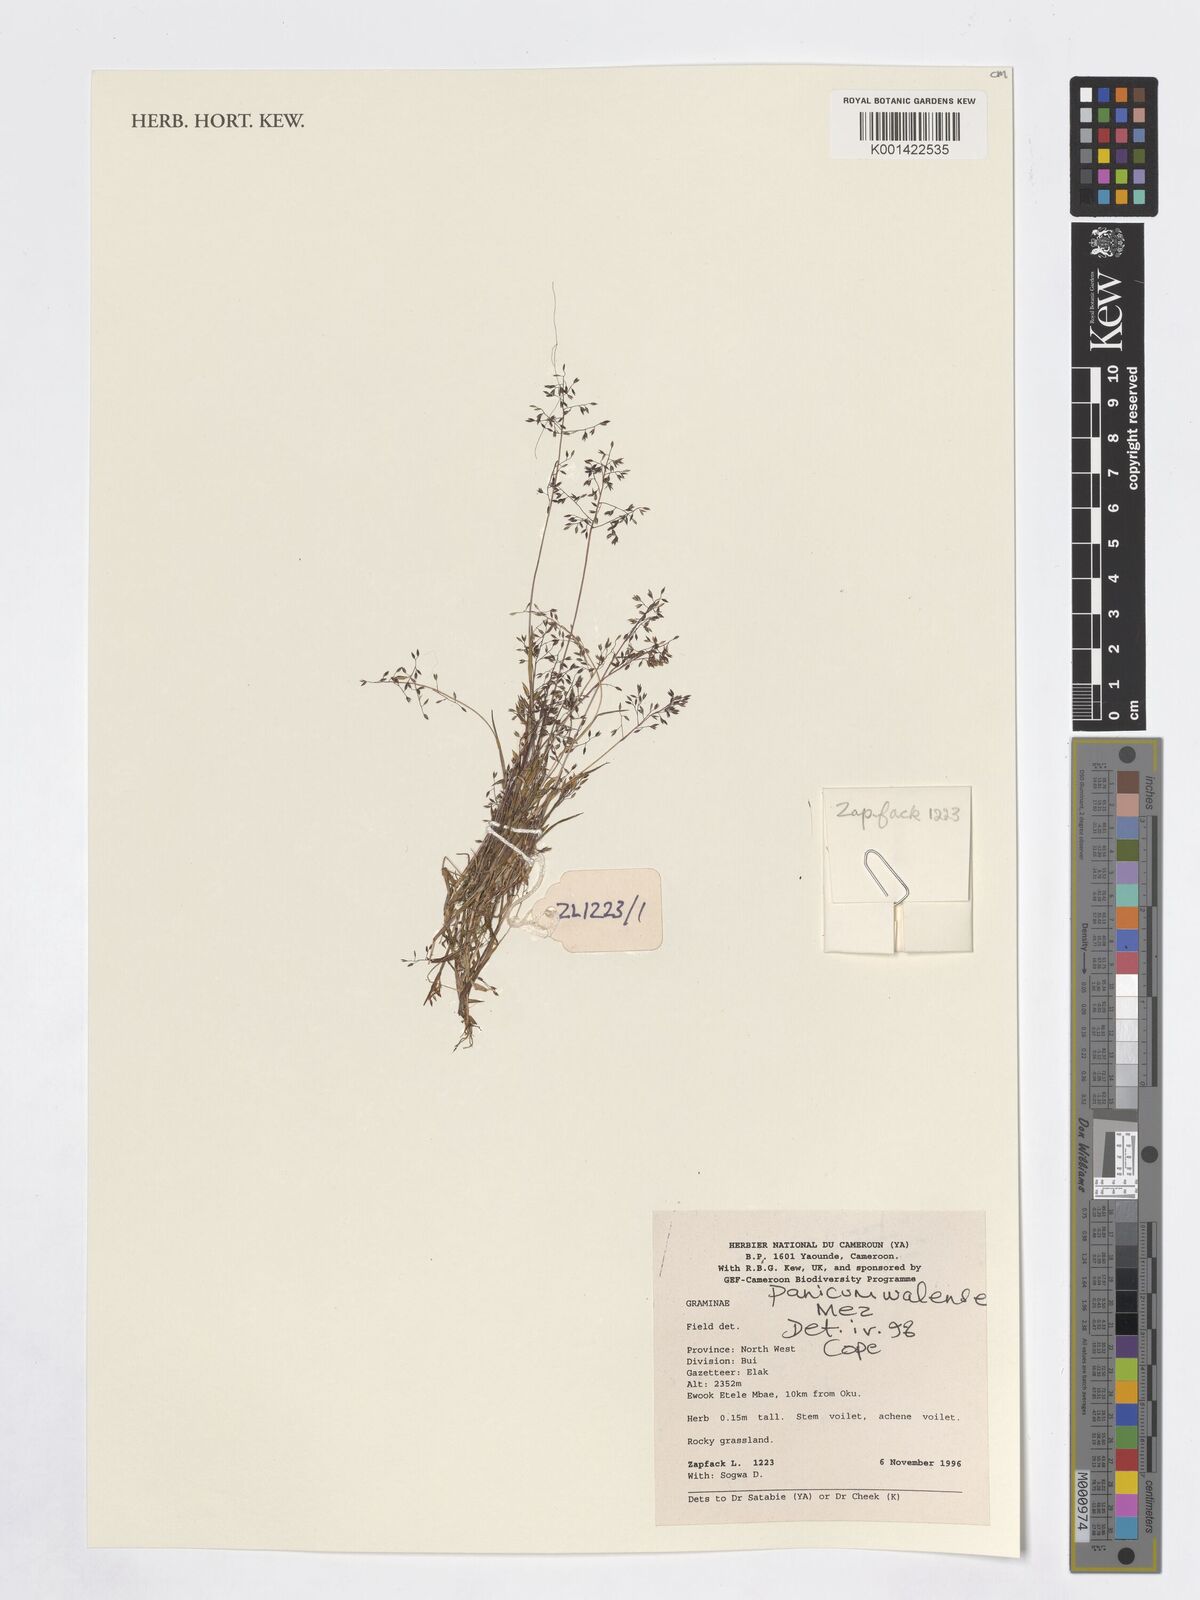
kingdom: Plantae
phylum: Tracheophyta
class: Liliopsida
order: Poales
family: Poaceae
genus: Panicum
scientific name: Panicum humile
